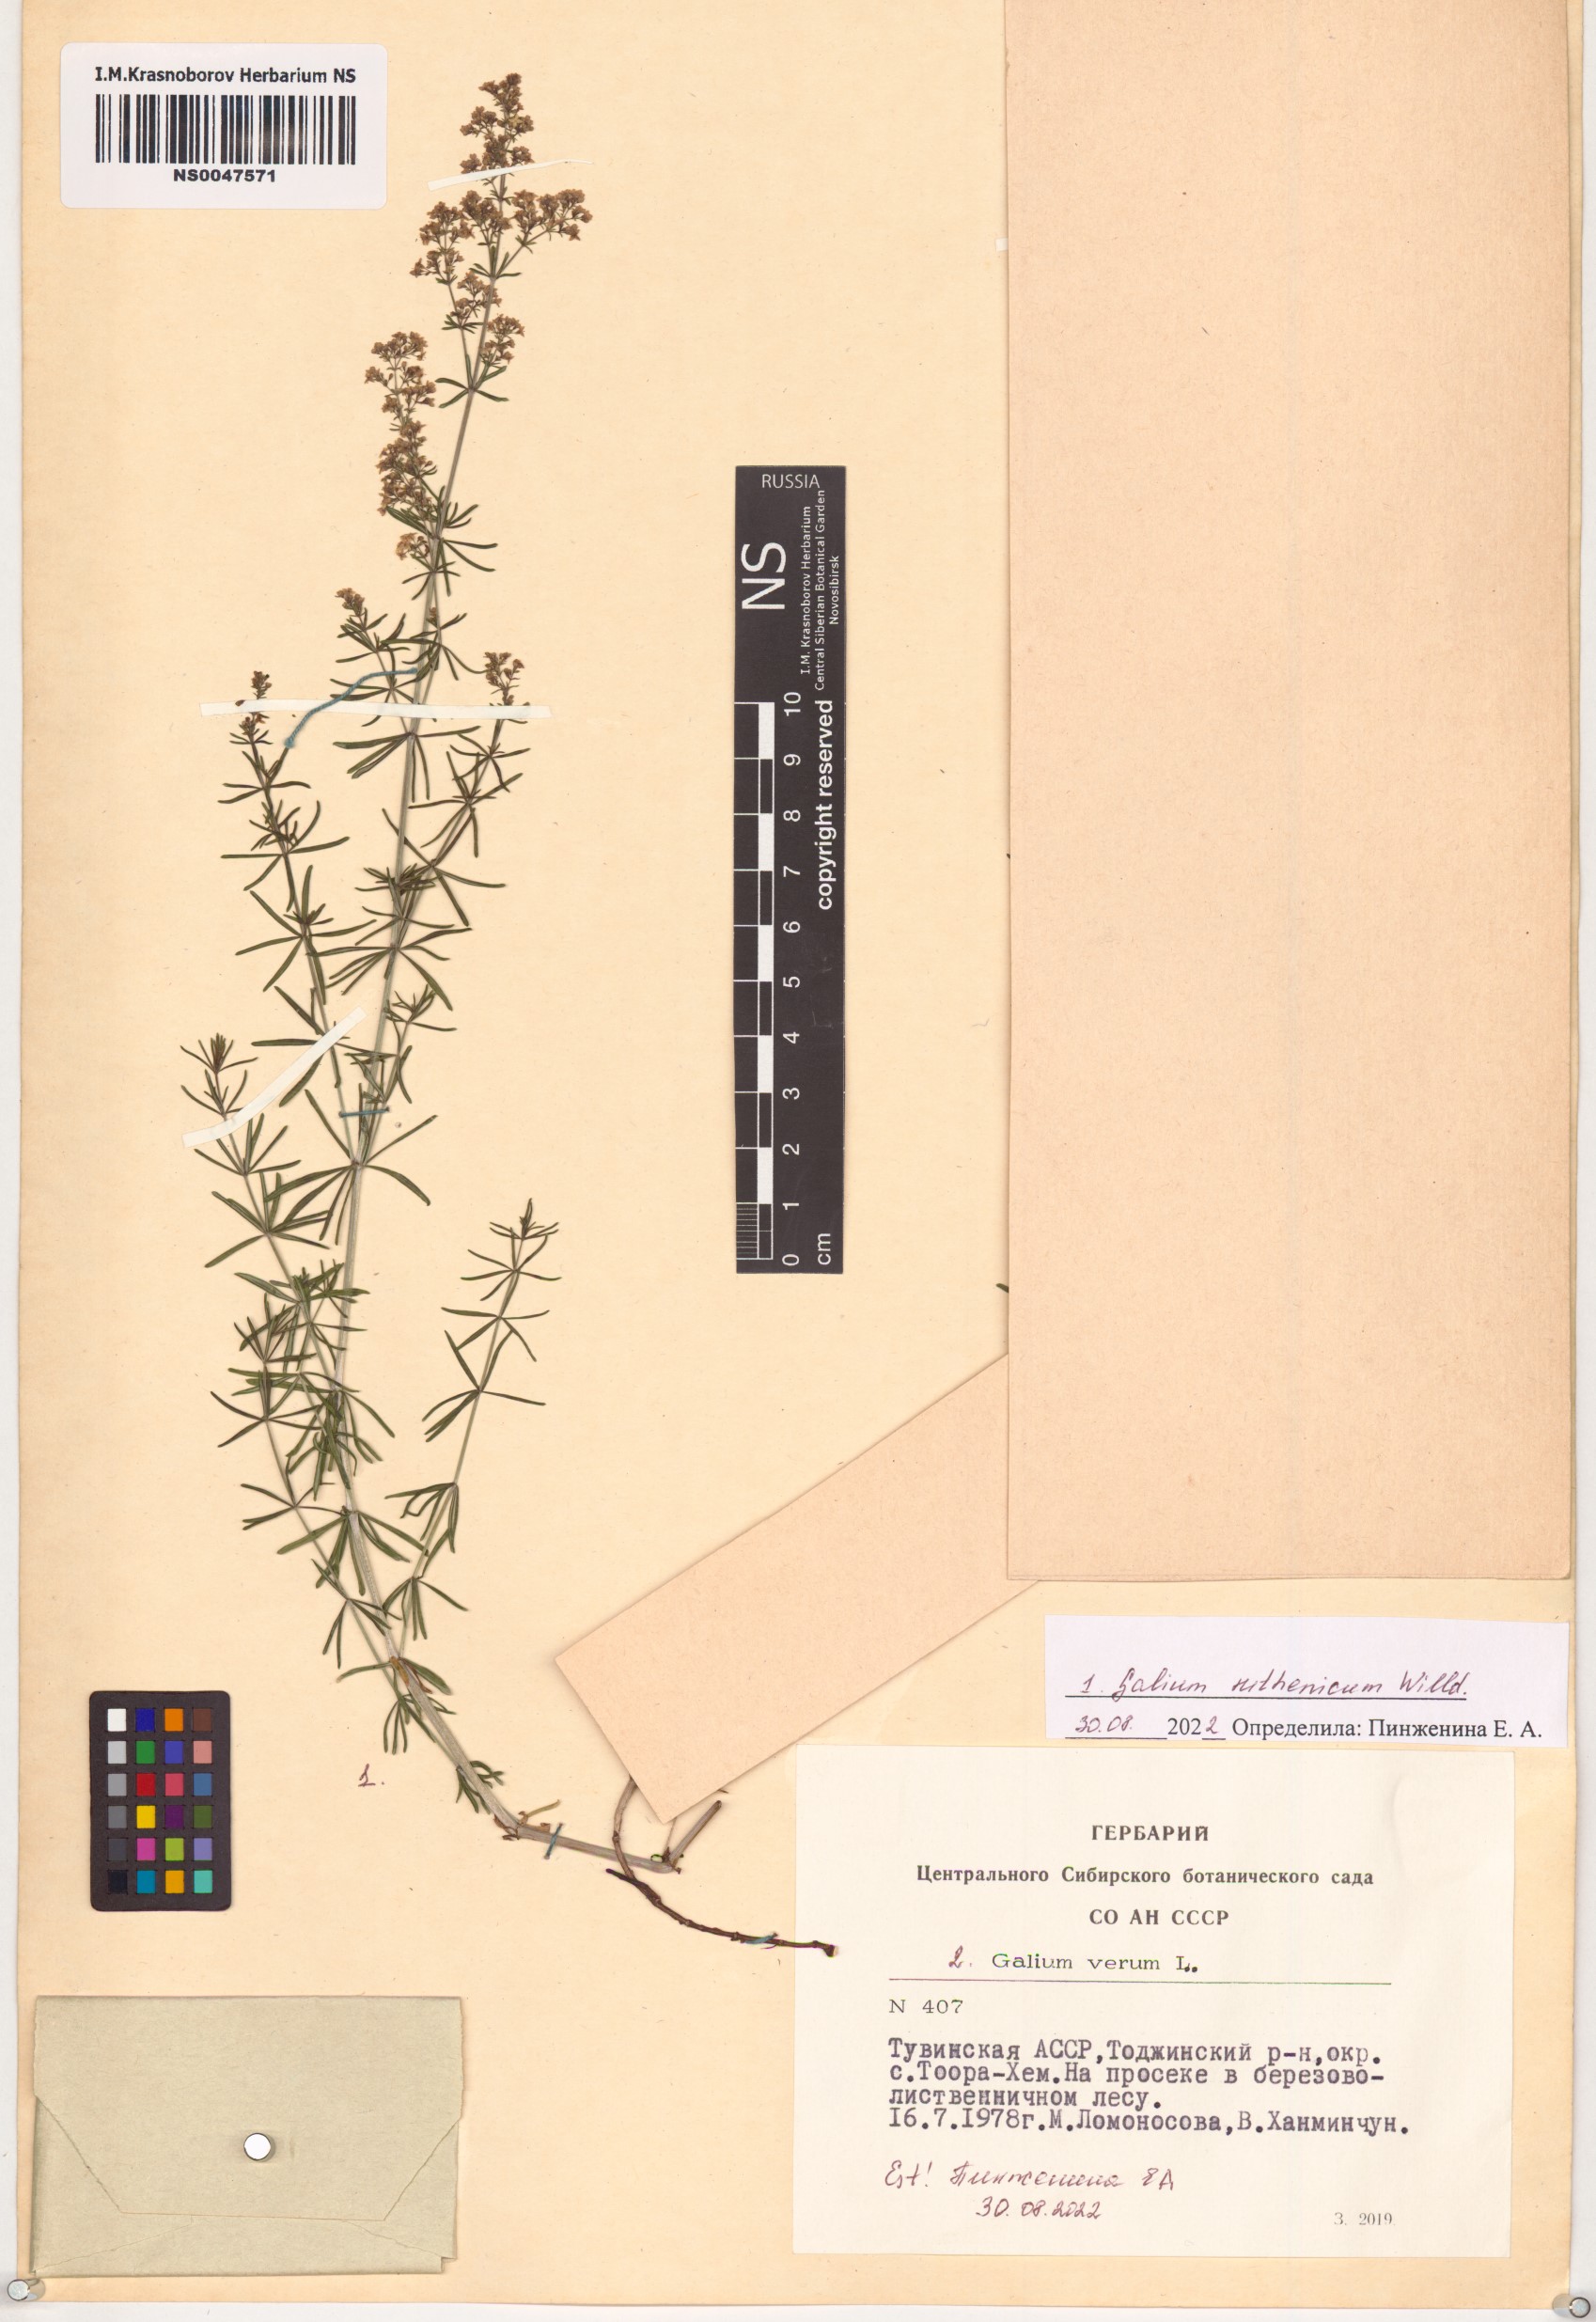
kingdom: Plantae
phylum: Tracheophyta
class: Magnoliopsida
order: Gentianales
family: Rubiaceae
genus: Galium
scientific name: Galium verum
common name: Lady's bedstraw
